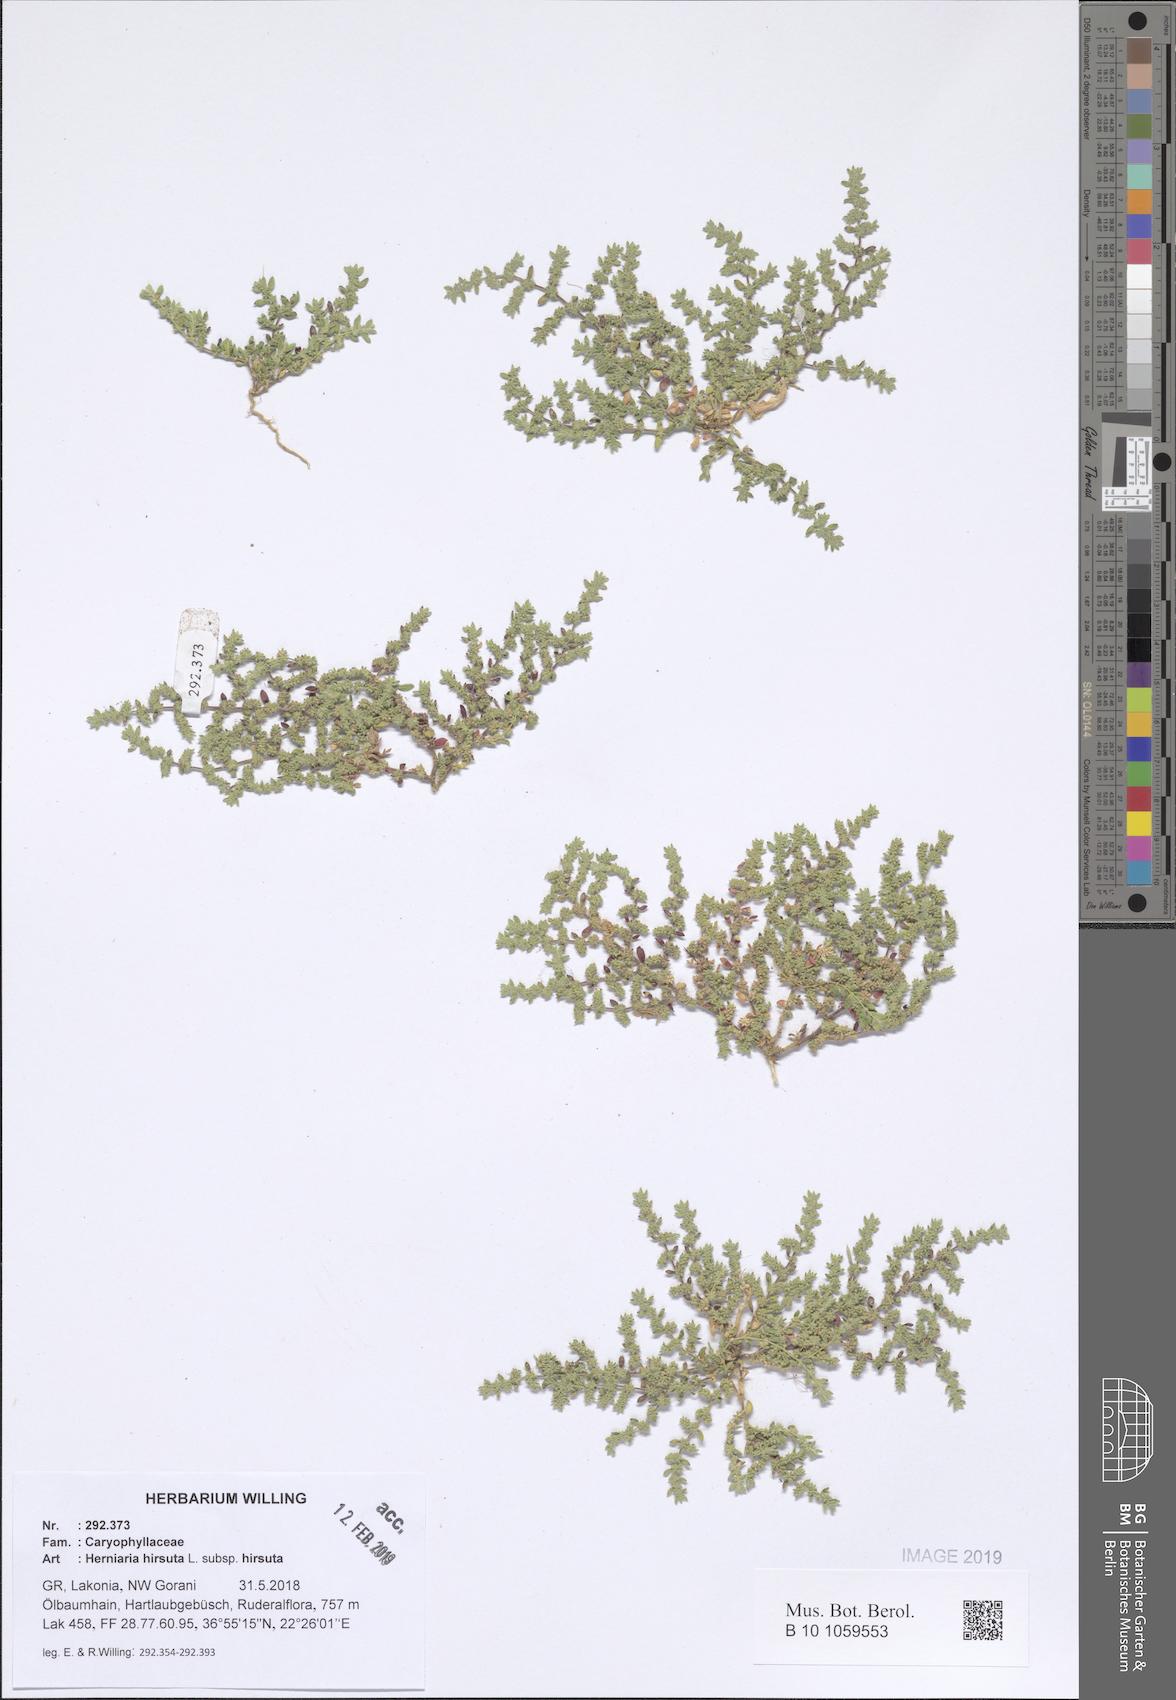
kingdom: Plantae
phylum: Tracheophyta
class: Magnoliopsida
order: Caryophyllales
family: Caryophyllaceae
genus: Herniaria
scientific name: Herniaria hirsuta
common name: Hairy rupturewort
